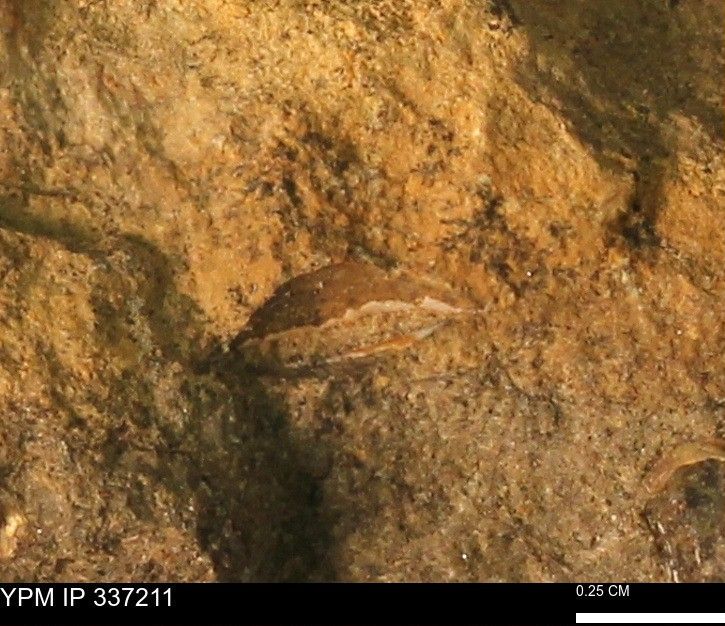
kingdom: Animalia
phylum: Mollusca
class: Bivalvia
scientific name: Bivalvia
